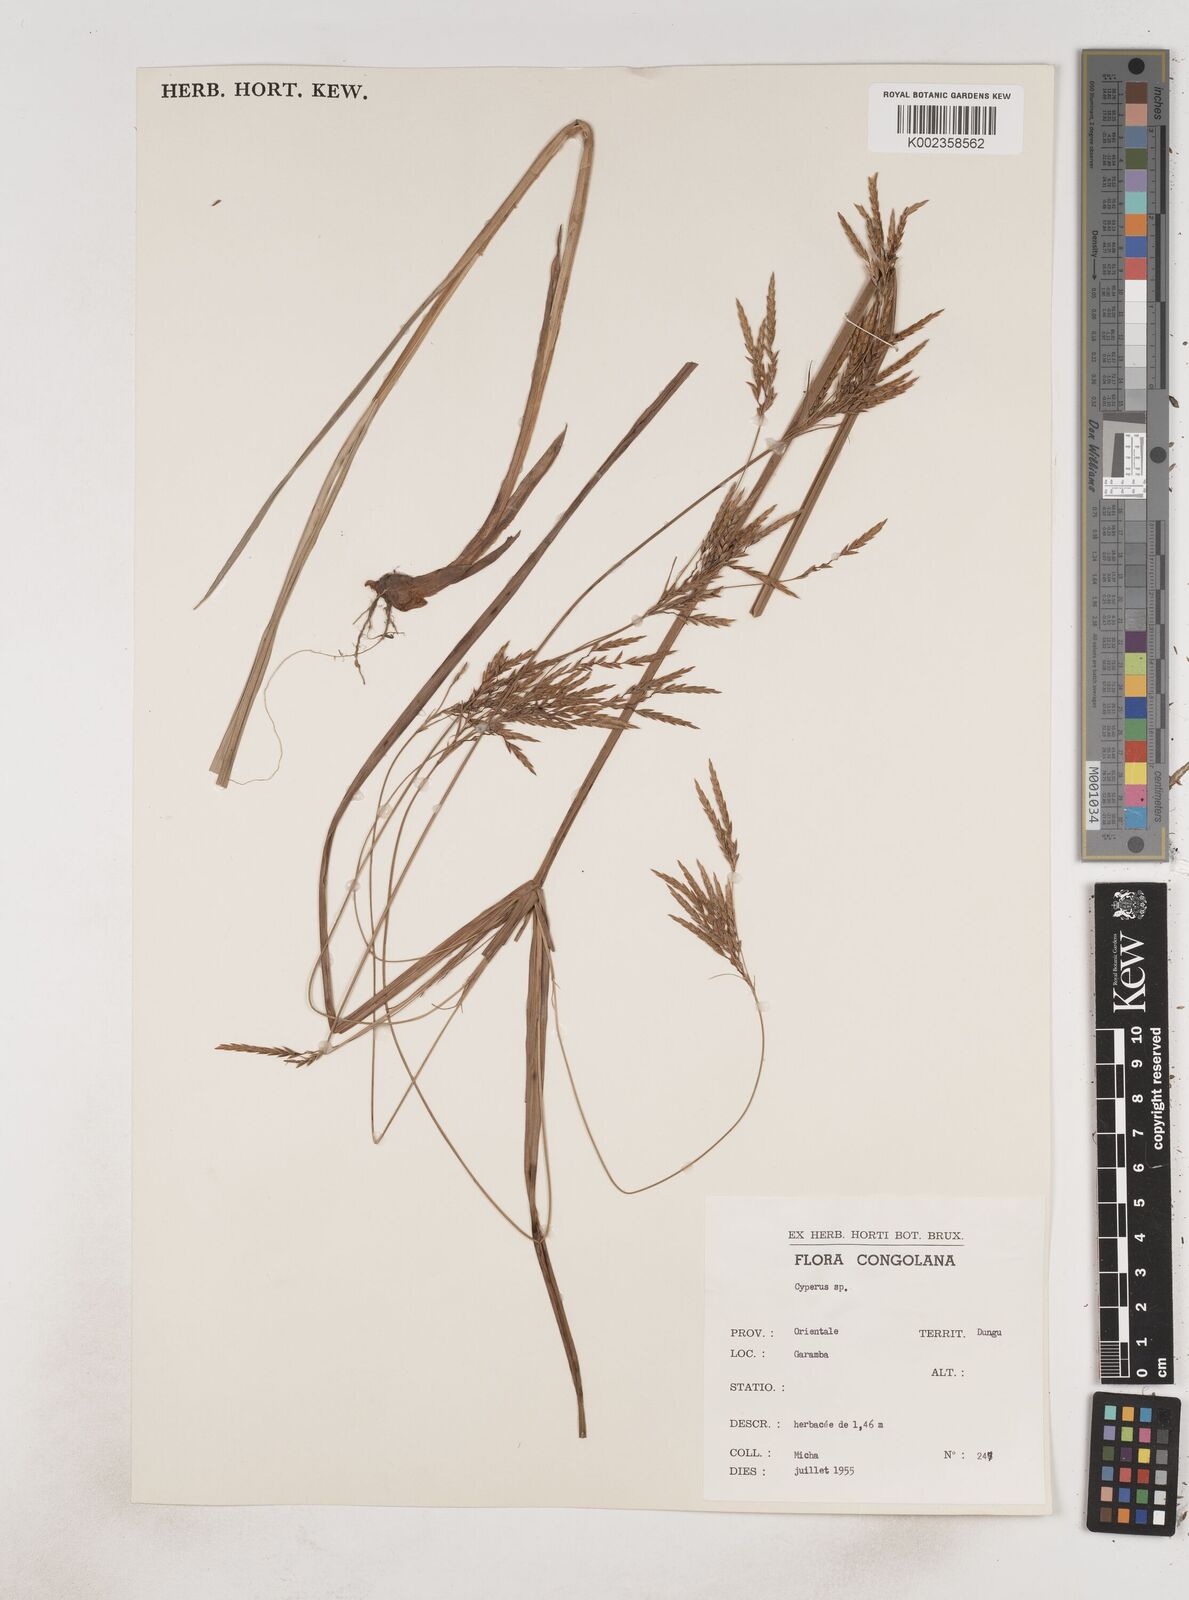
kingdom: Plantae
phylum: Tracheophyta
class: Liliopsida
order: Poales
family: Cyperaceae
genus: Cyperus
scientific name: Cyperus tenuiculmis
